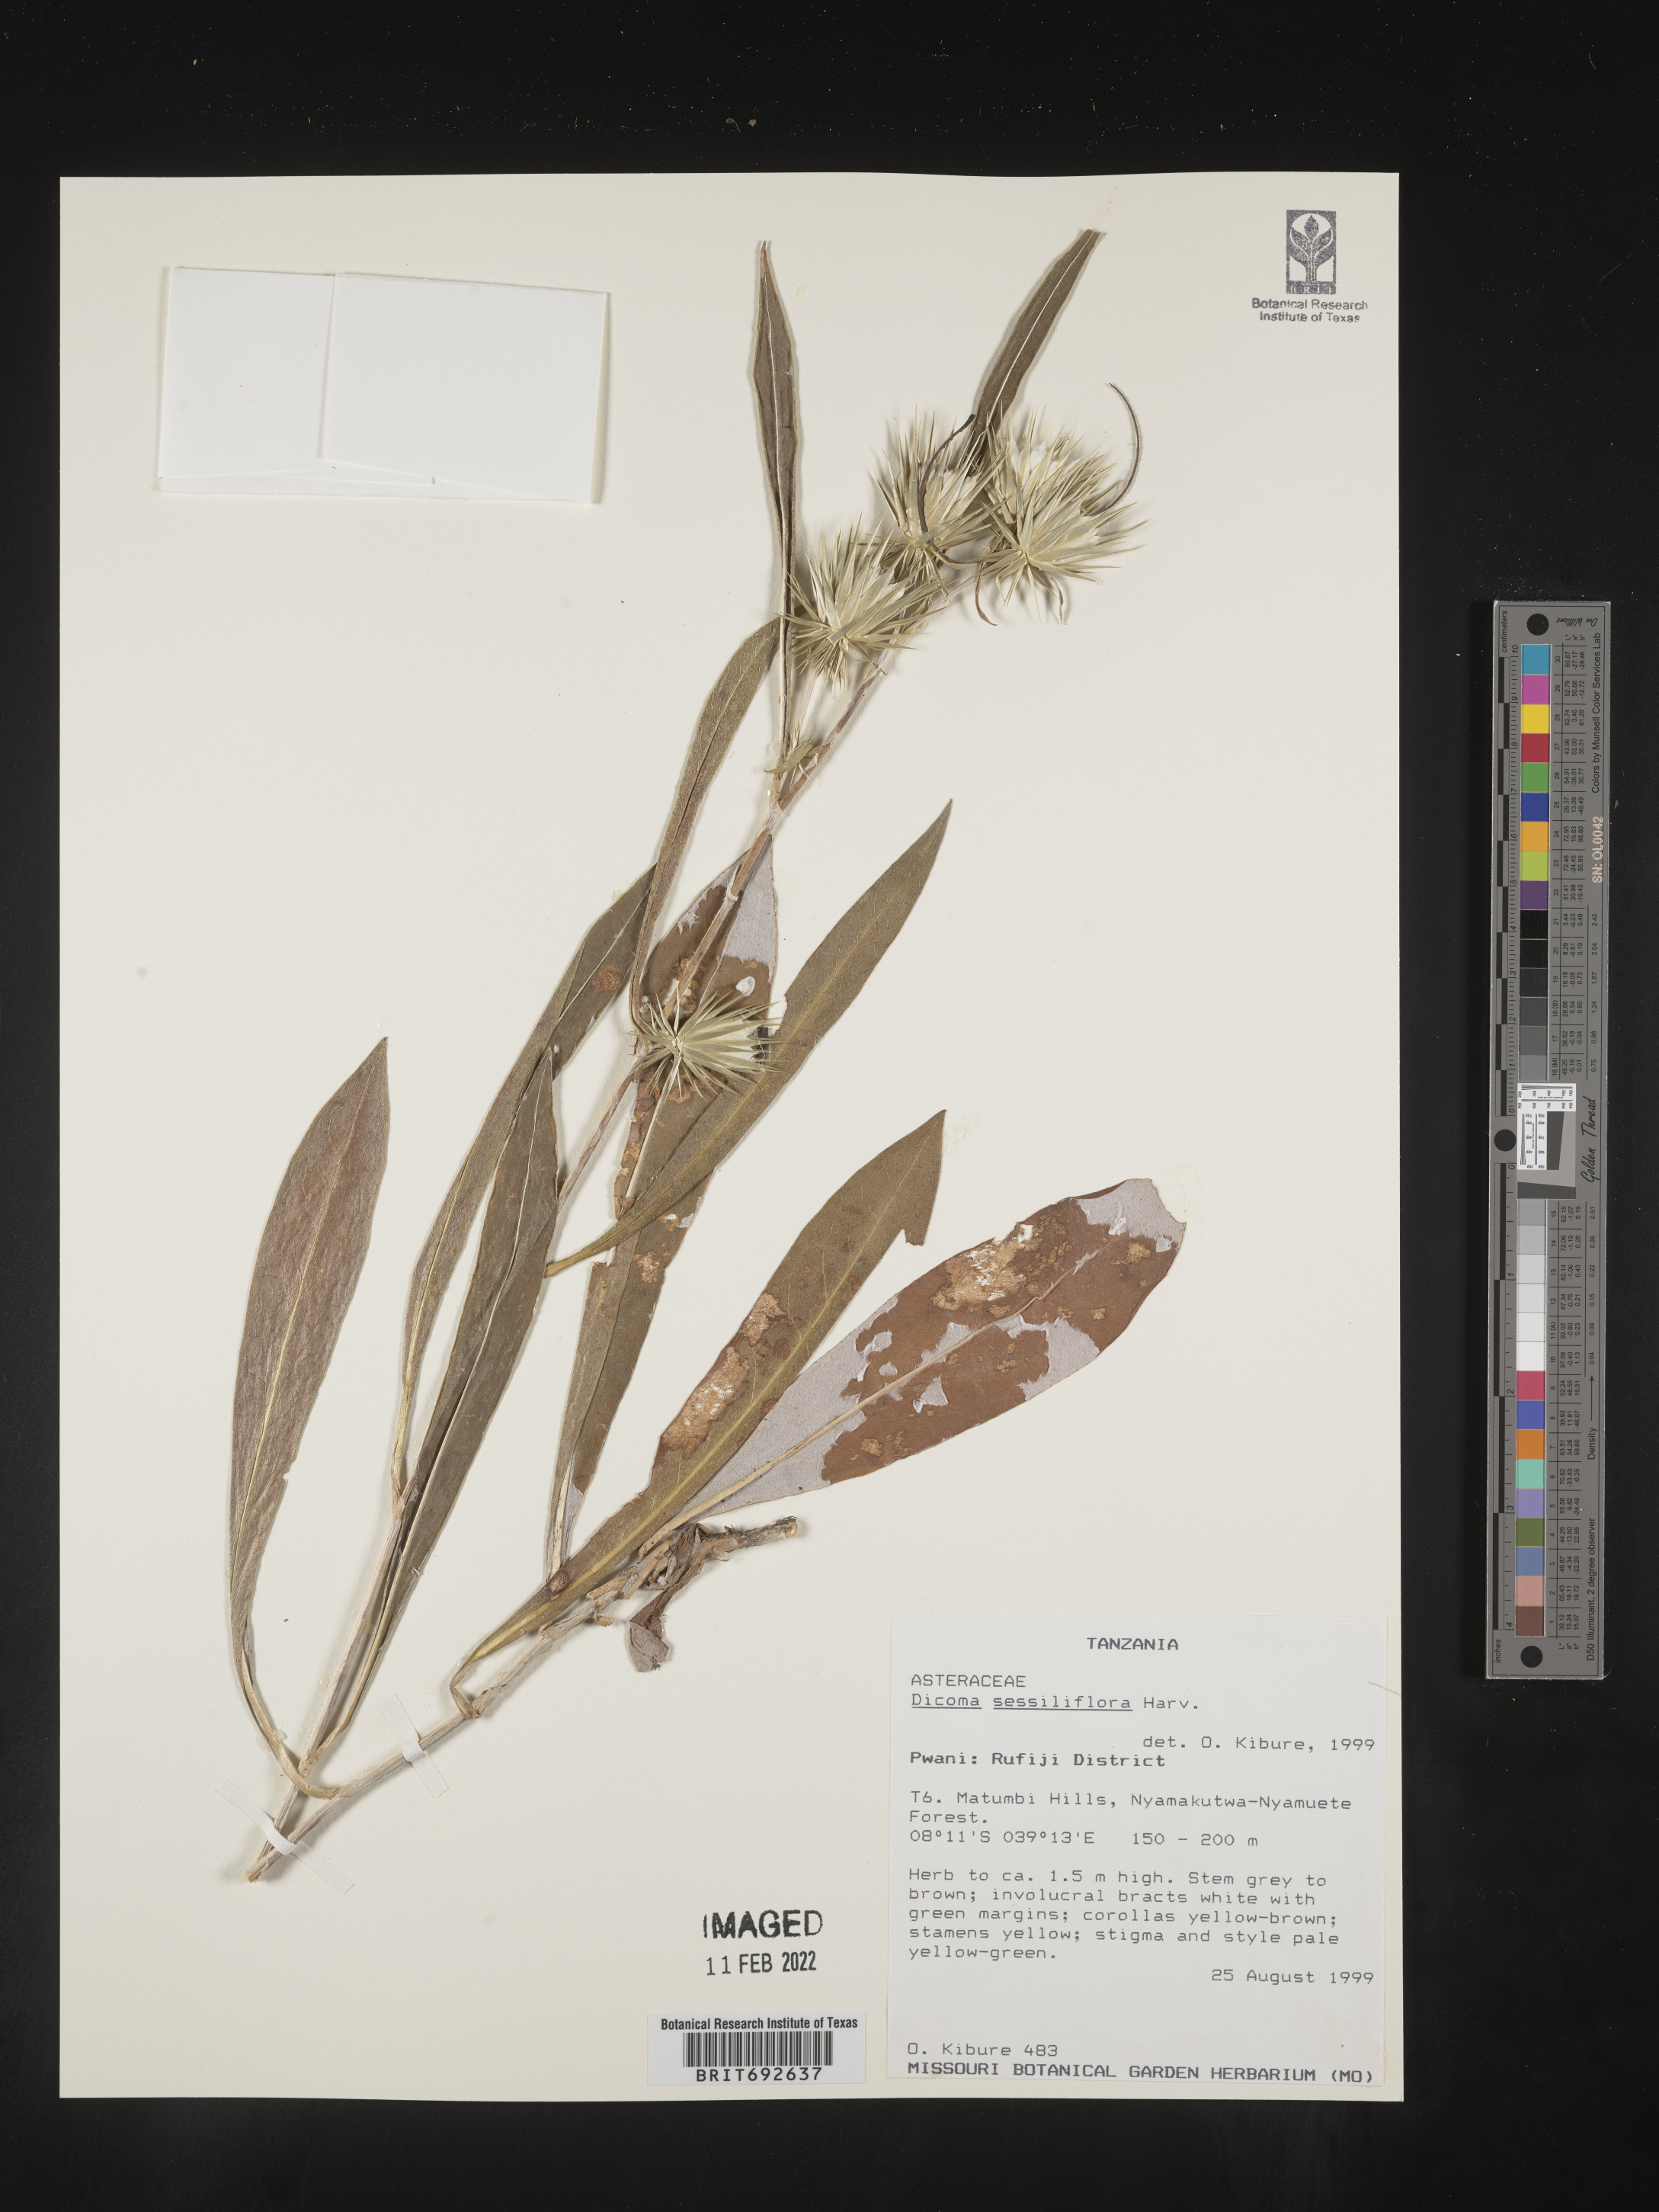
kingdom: Plantae
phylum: Tracheophyta
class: Magnoliopsida
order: Asterales
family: Asteraceae
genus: Dicoma
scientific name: Dicoma
